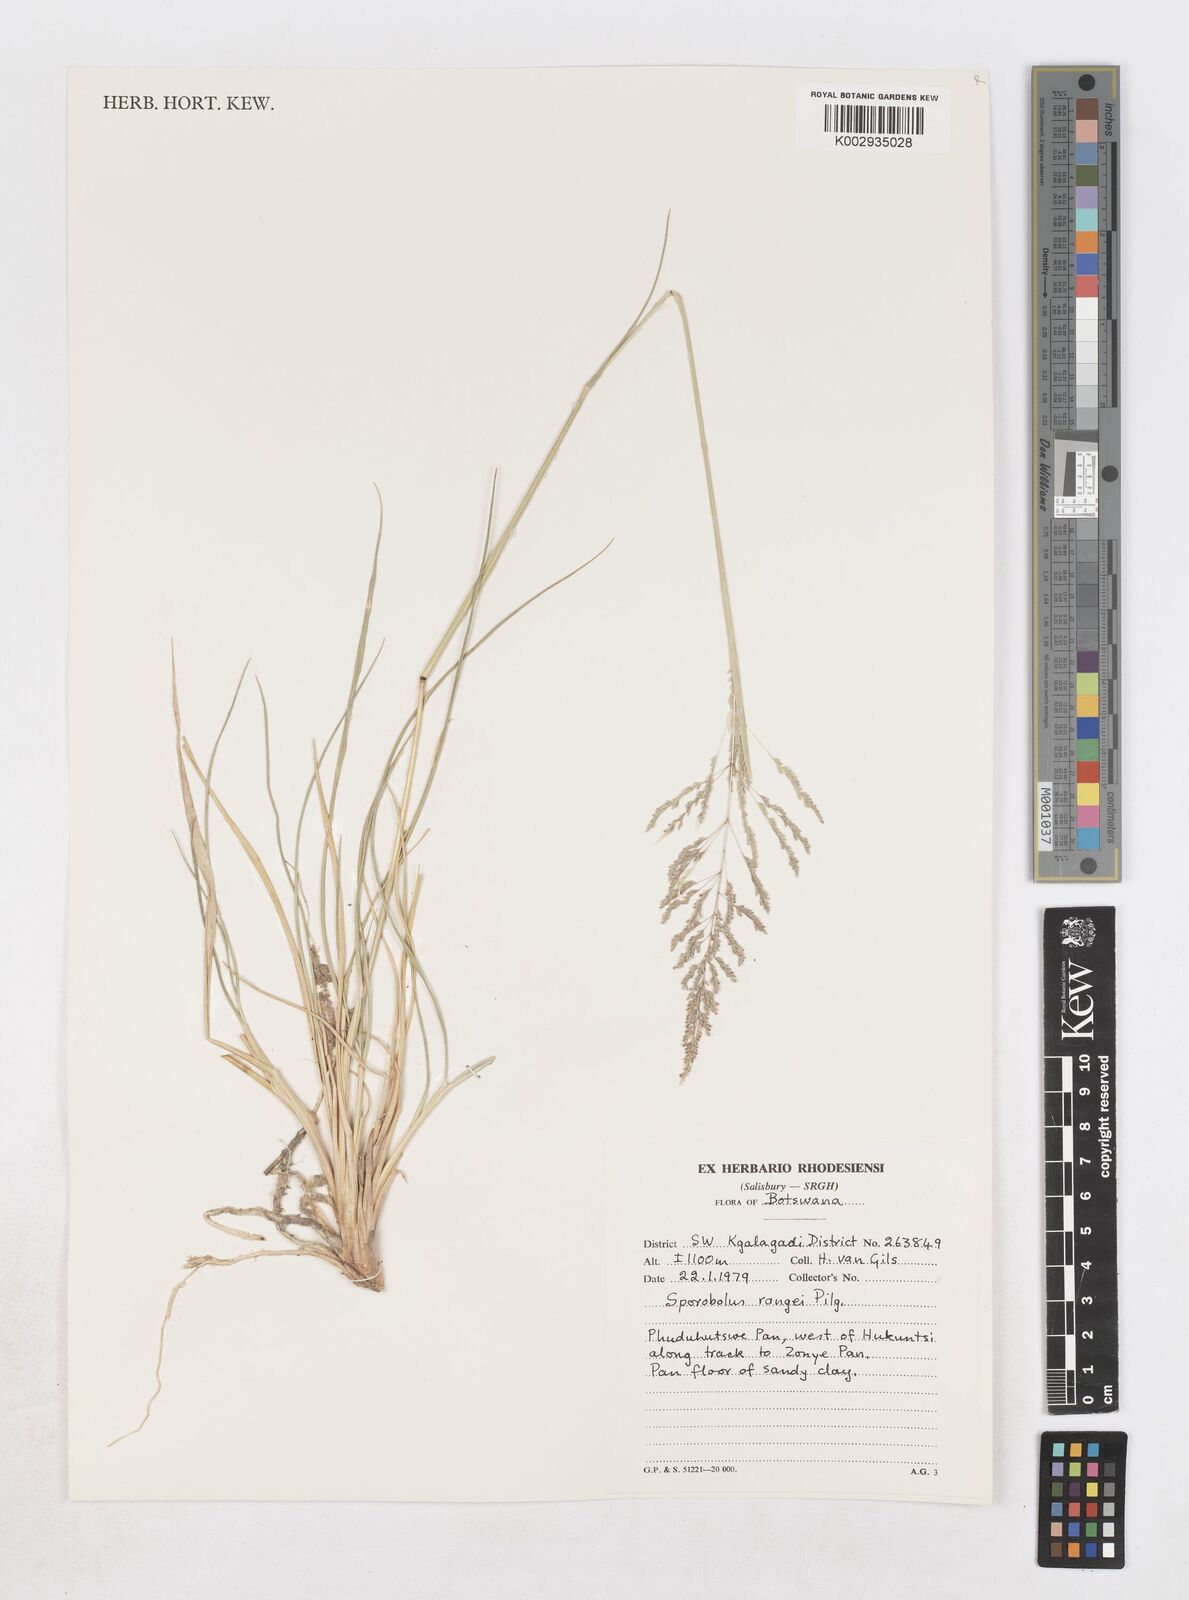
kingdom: Plantae
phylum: Tracheophyta
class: Liliopsida
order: Poales
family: Poaceae
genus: Sporobolus
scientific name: Sporobolus ioclados
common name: Pan dropseed
